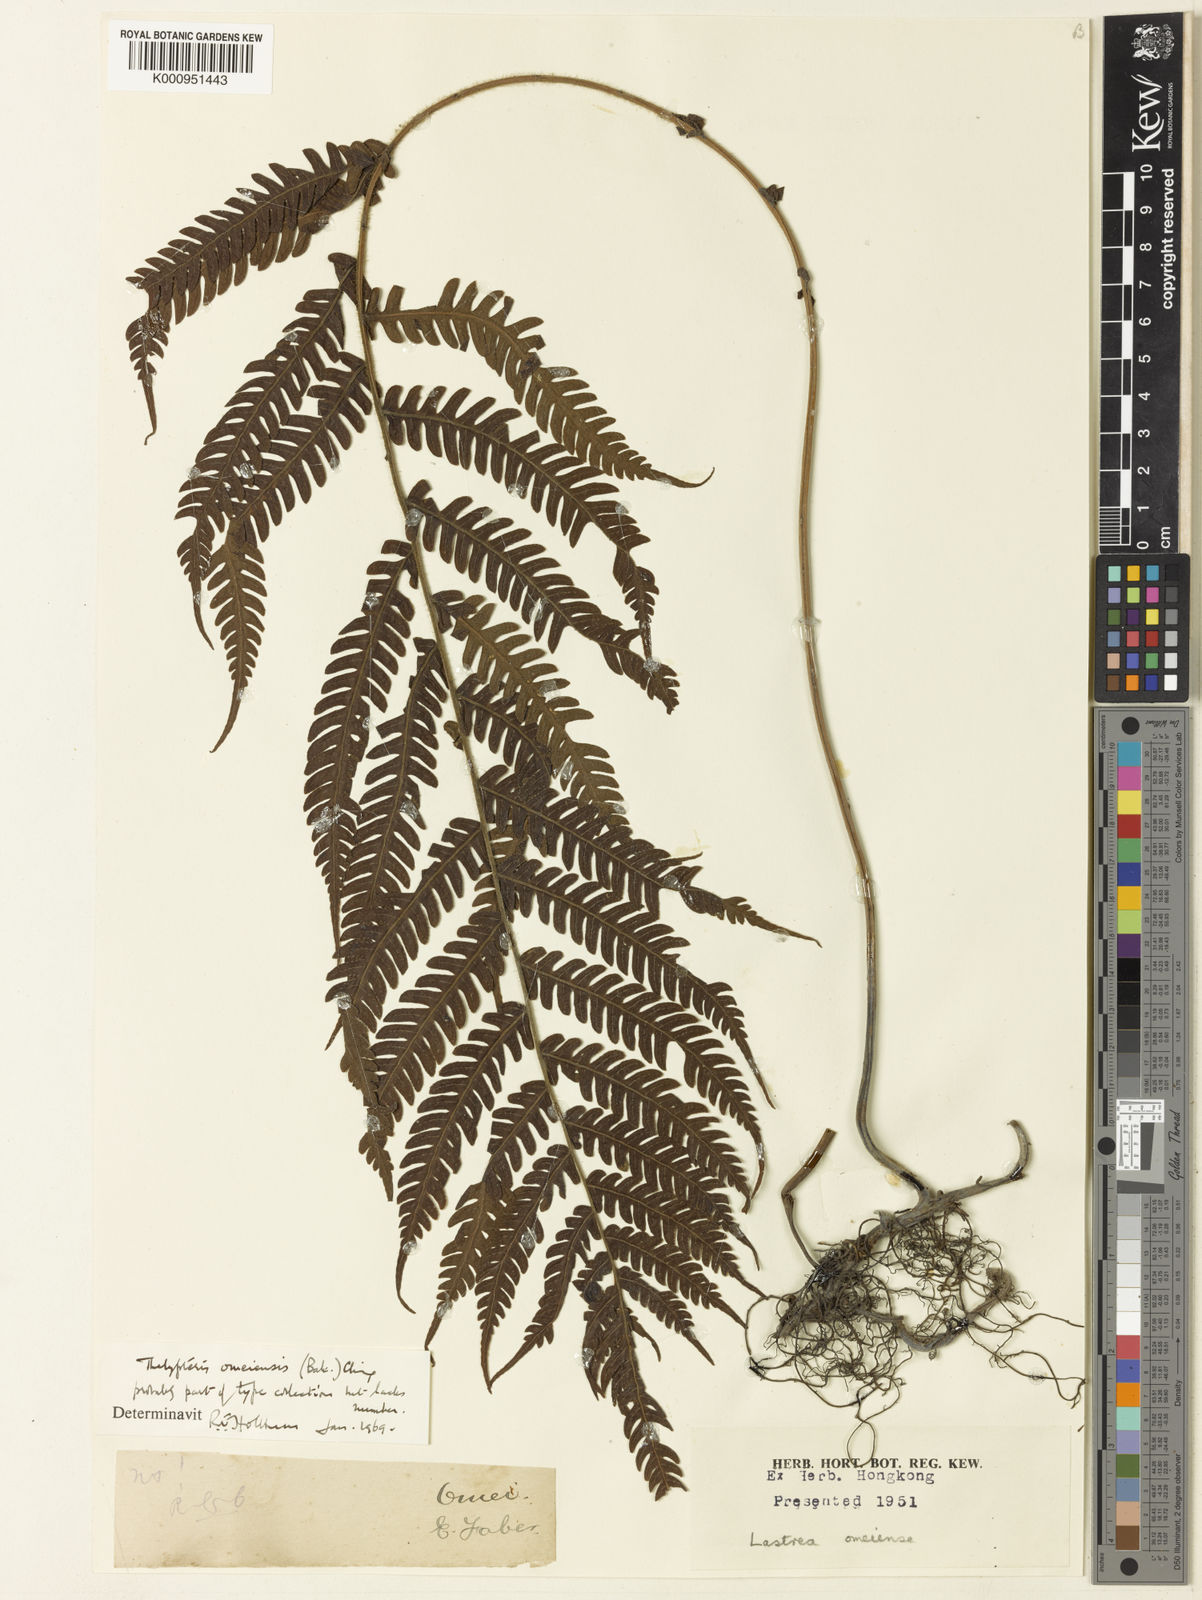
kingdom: Plantae
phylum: Tracheophyta
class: Polypodiopsida
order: Polypodiales
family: Thelypteridaceae
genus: Cyclogramma
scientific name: Cyclogramma omeiensis
